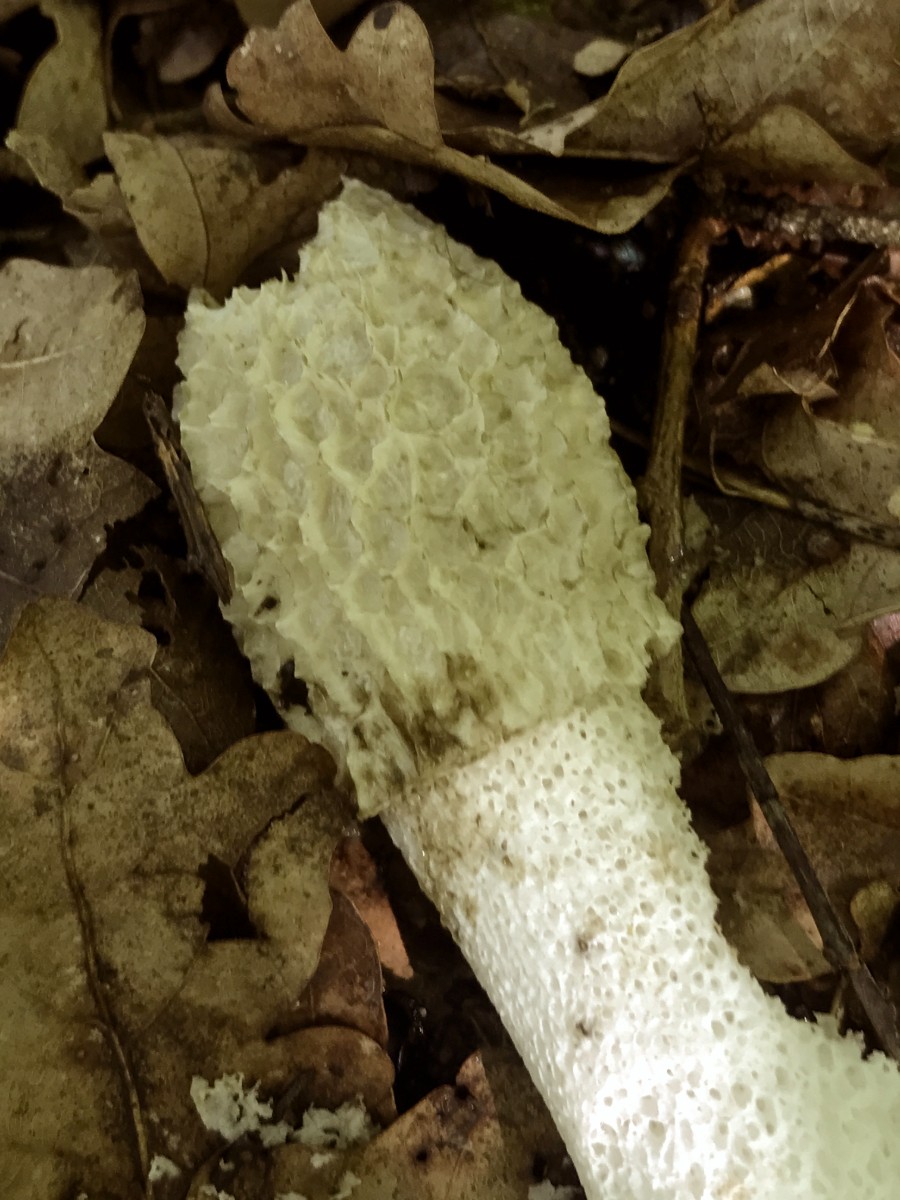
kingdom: Fungi
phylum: Basidiomycota
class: Agaricomycetes
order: Phallales
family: Phallaceae
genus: Phallus
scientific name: Phallus impudicus
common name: almindelig stinksvamp
